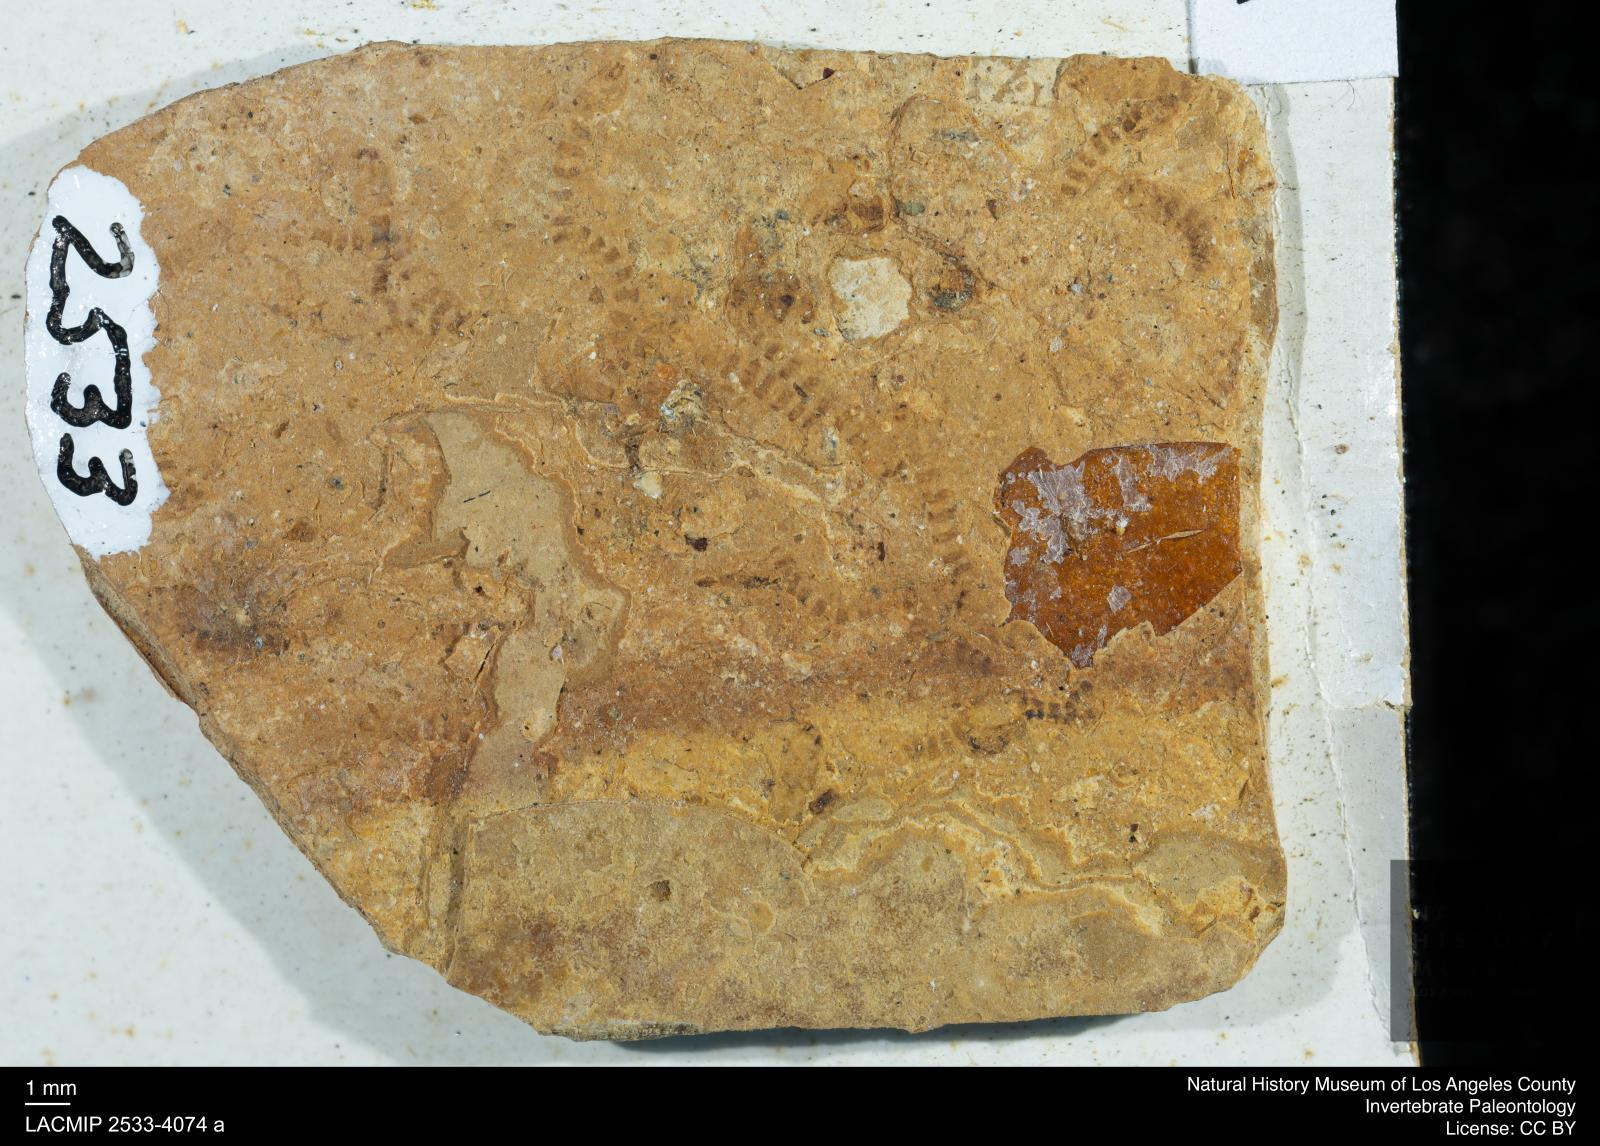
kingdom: Animalia
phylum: Arthropoda
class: Insecta
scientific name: Insecta
